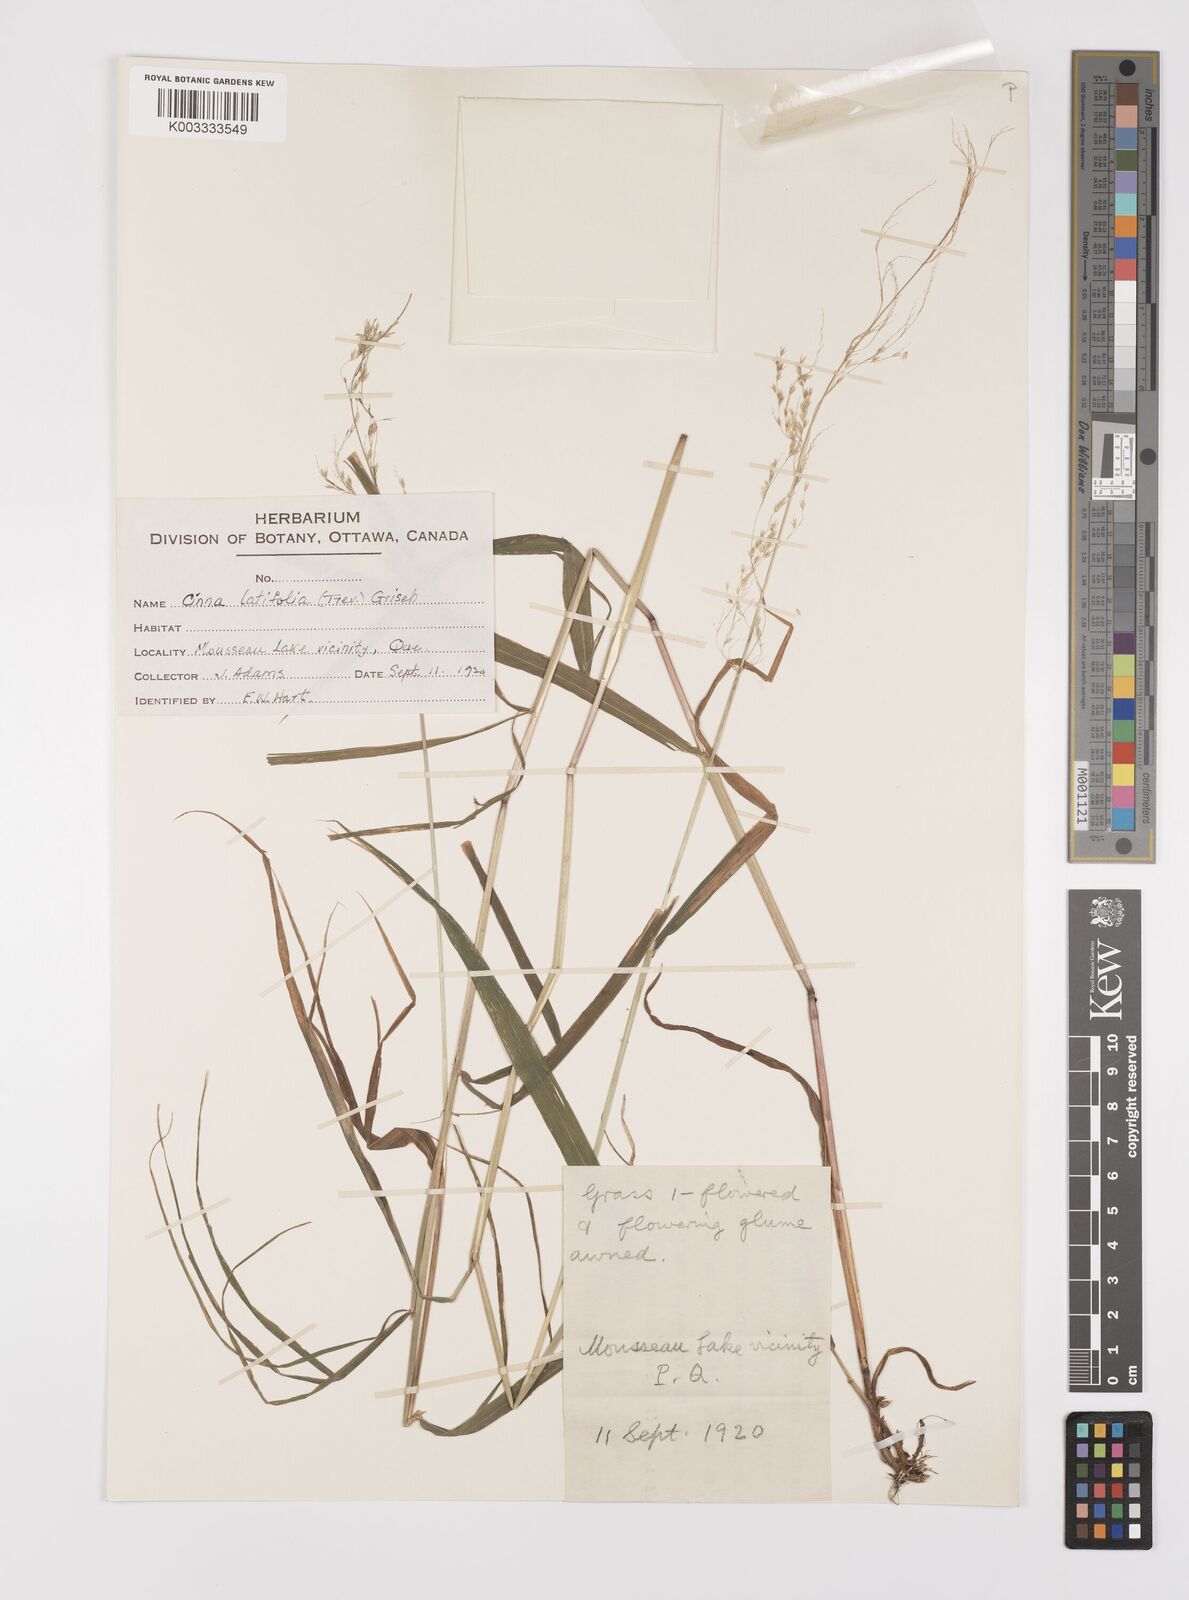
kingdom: Plantae
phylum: Tracheophyta
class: Liliopsida
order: Poales
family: Poaceae
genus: Cinna
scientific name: Cinna latifolia
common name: Drooping woodreed
